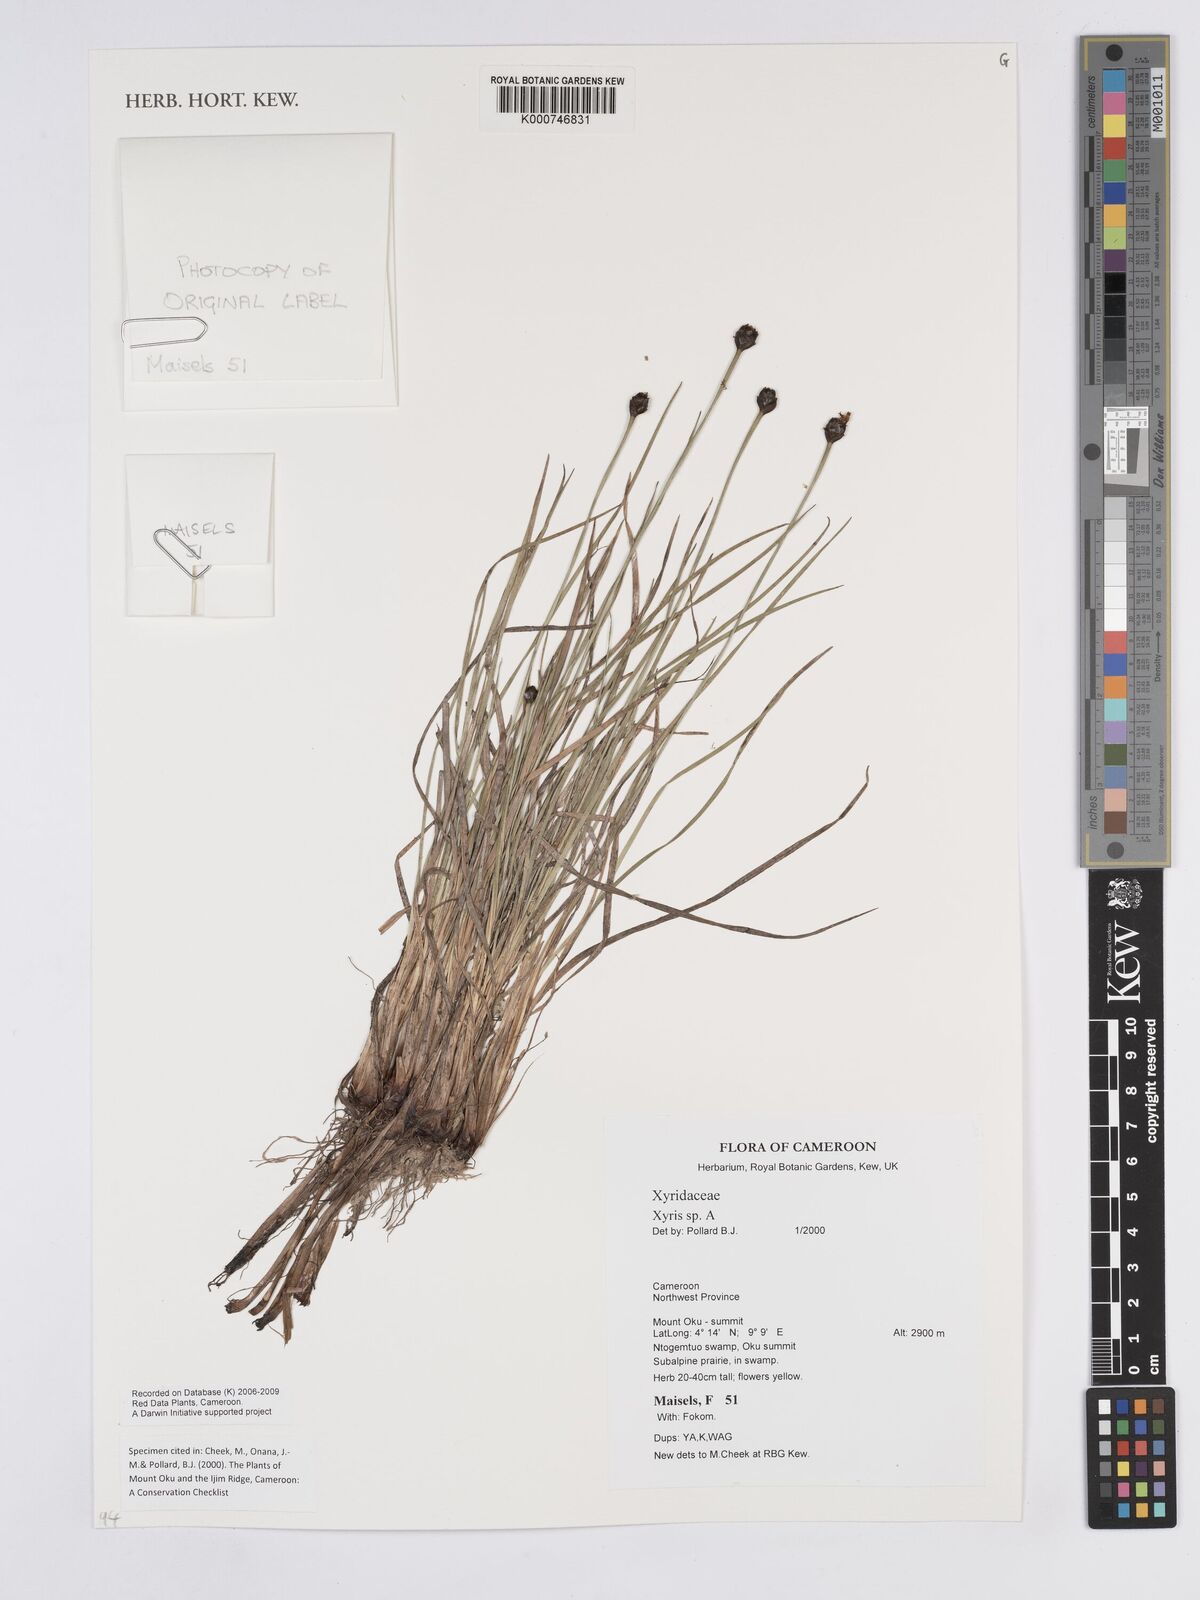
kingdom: Plantae
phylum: Tracheophyta
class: Liliopsida
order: Poales
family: Xyridaceae
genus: Xyris
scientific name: Xyris
